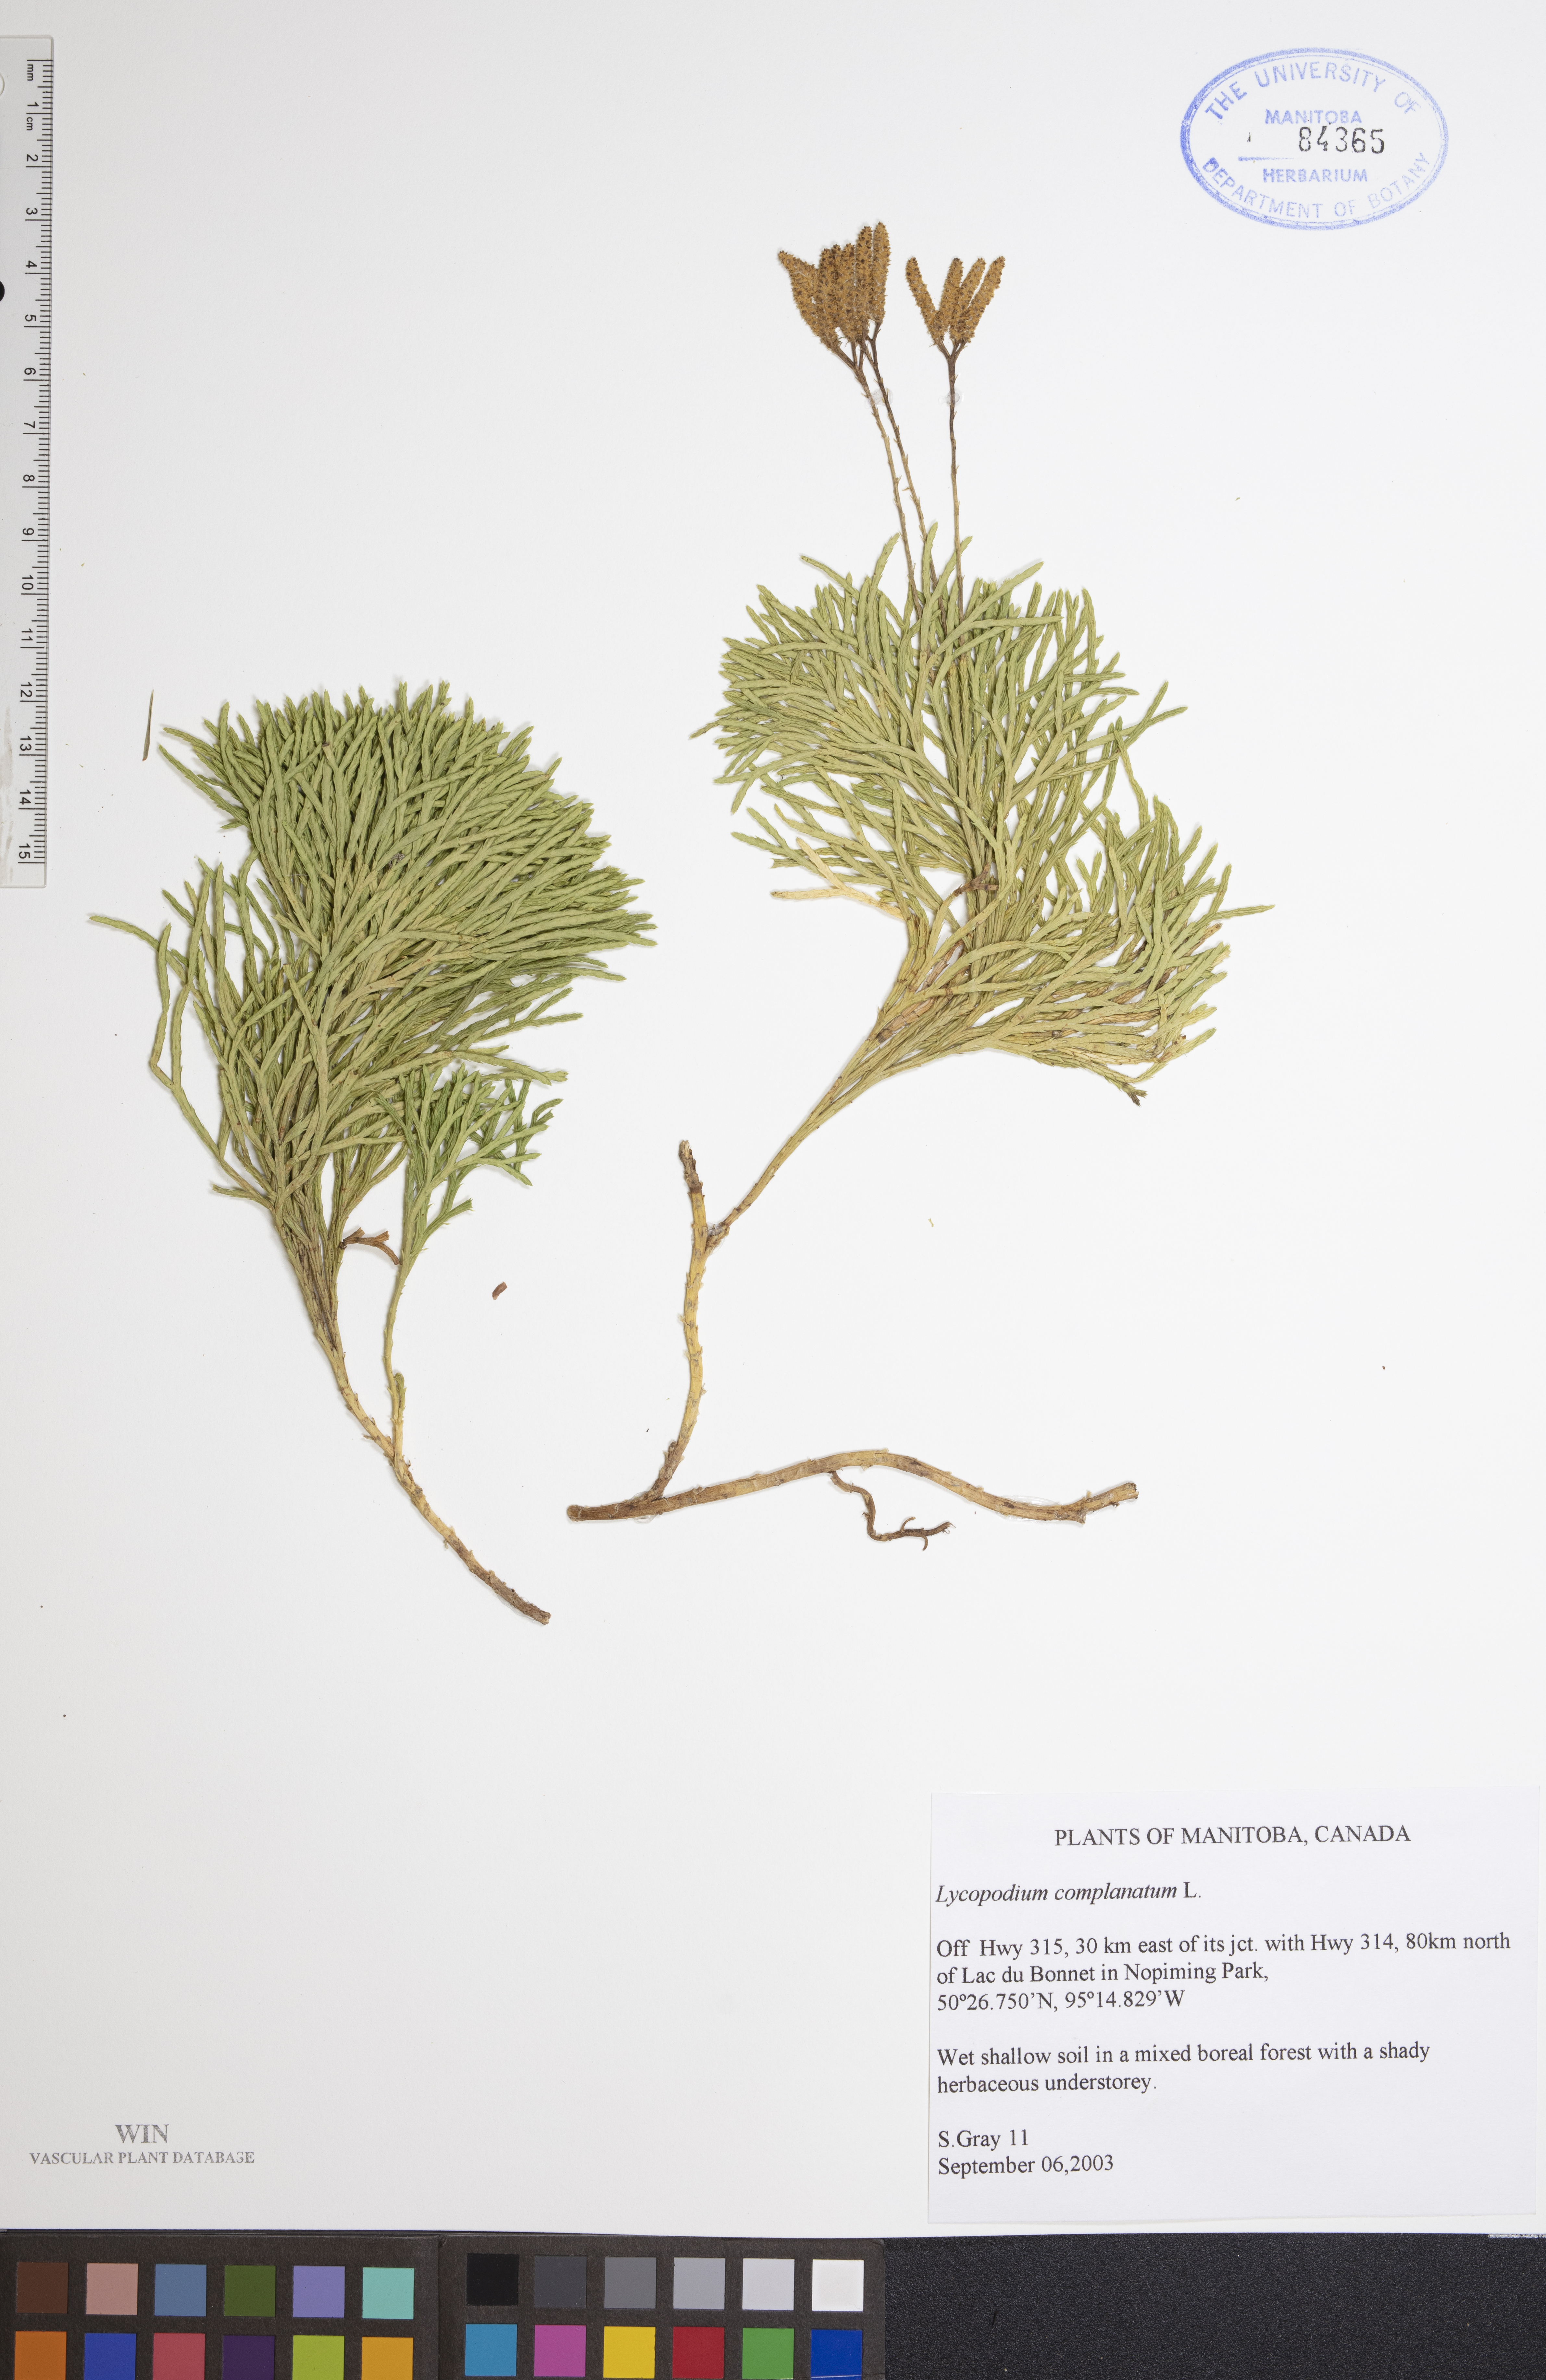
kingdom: Plantae
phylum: Tracheophyta
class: Lycopodiopsida
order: Lycopodiales
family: Lycopodiaceae
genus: Diphasiastrum
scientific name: Diphasiastrum complanatum
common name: Northern running-pine
